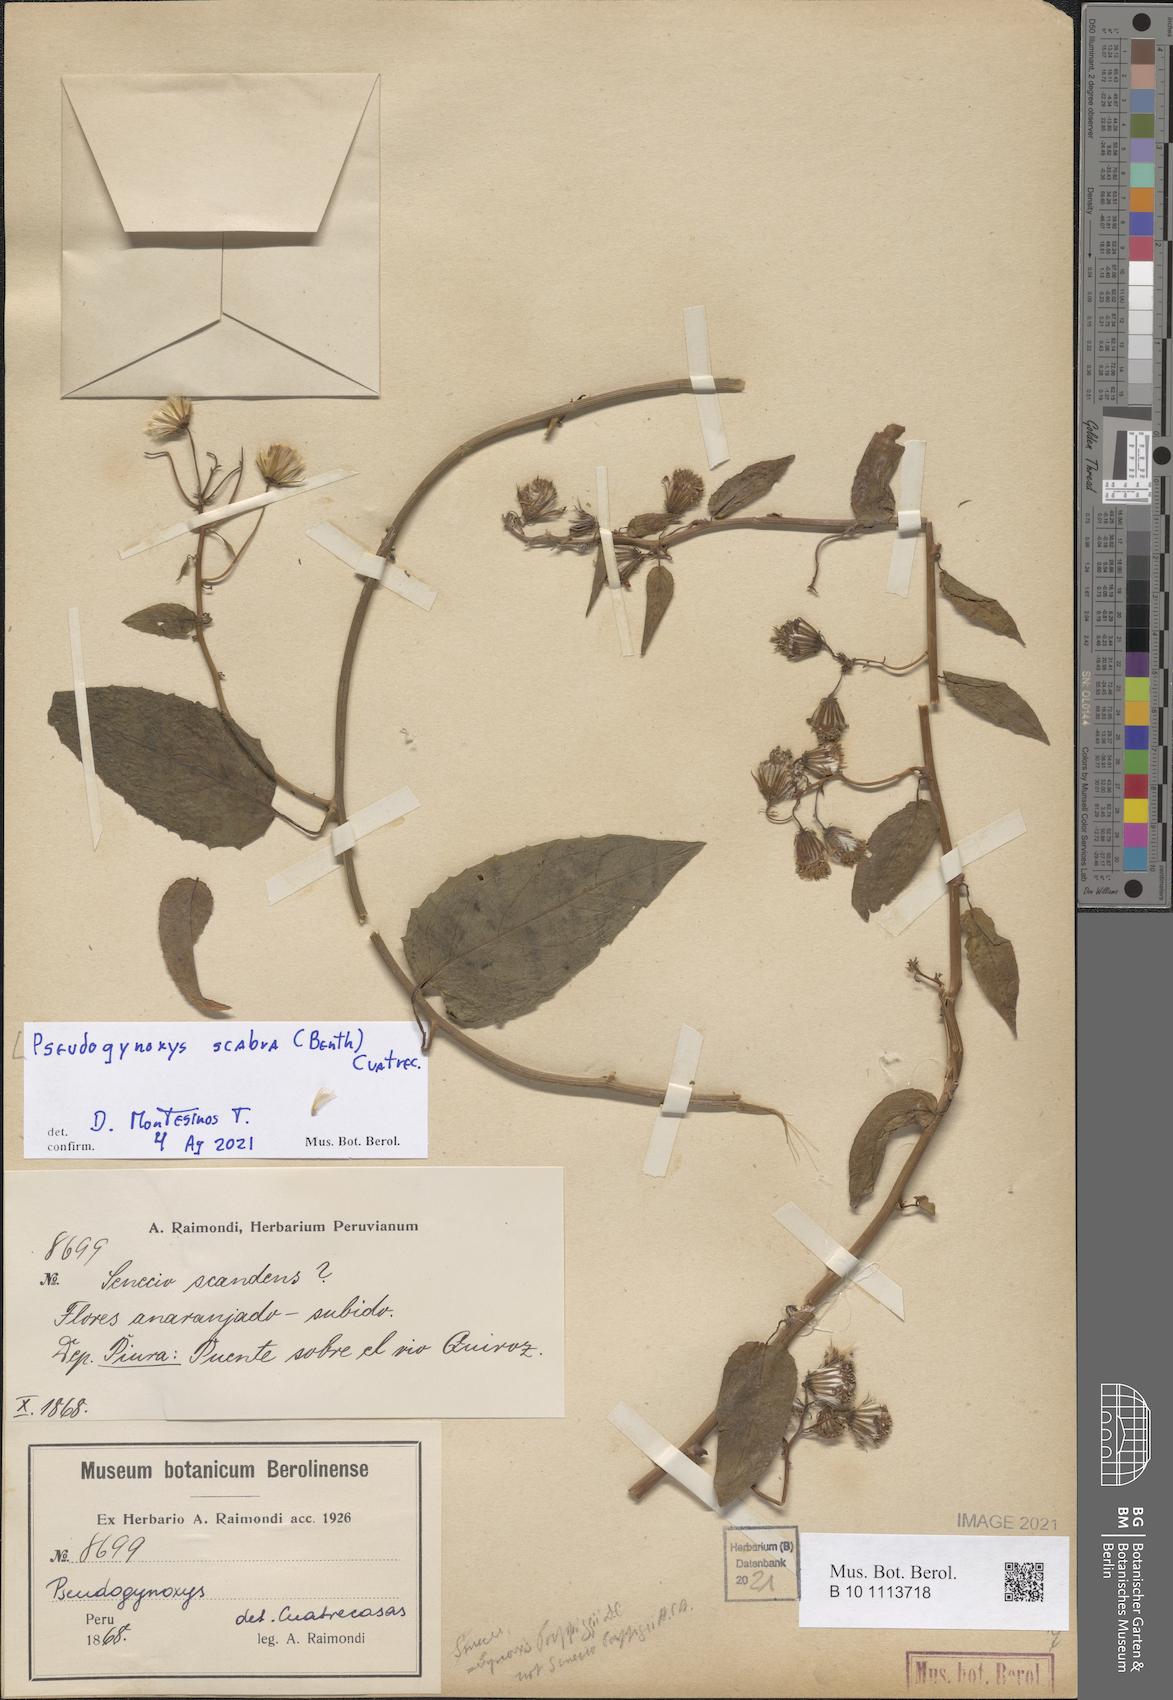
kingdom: Plantae
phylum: Tracheophyta
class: Magnoliopsida
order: Asterales
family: Asteraceae
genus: Pseudogynoxys
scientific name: Pseudogynoxys scabra
